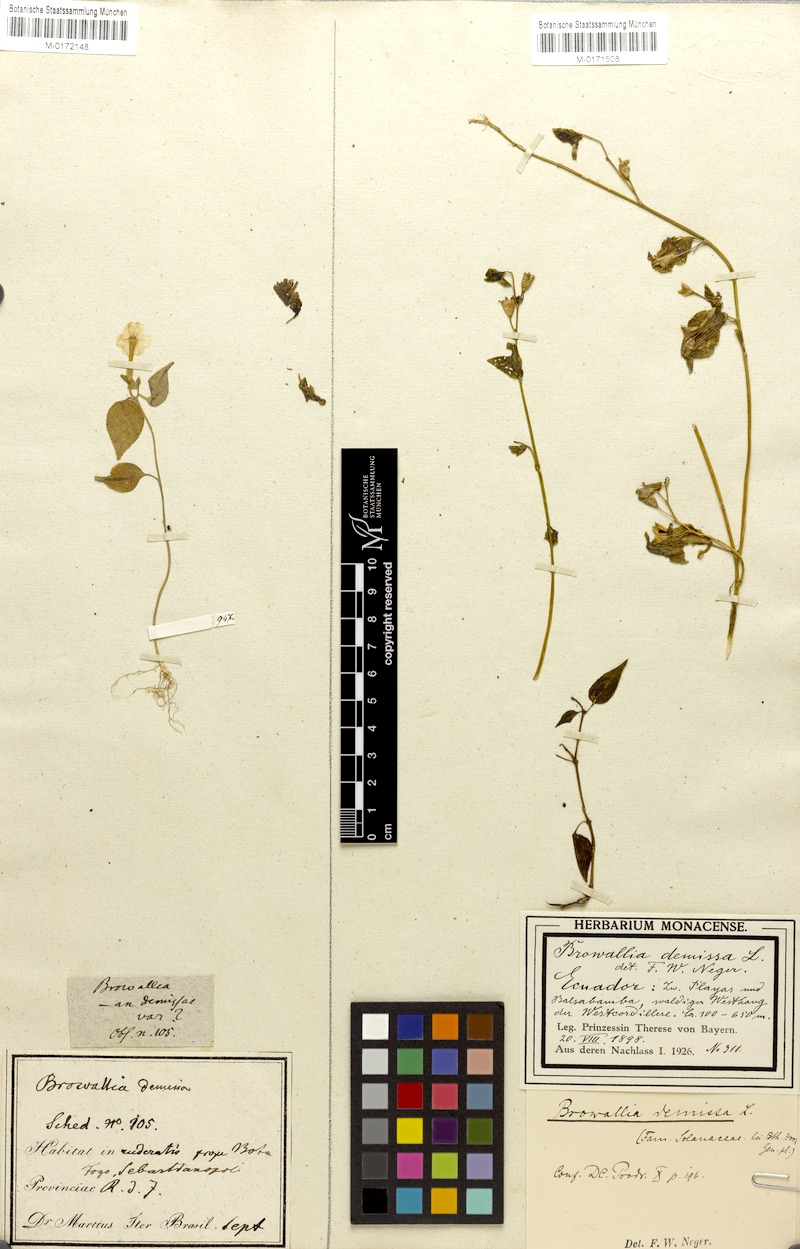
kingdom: Plantae
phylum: Tracheophyta
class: Magnoliopsida
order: Solanales
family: Solanaceae
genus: Browallia
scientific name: Browallia americana
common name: Jamaican forget-me-not
